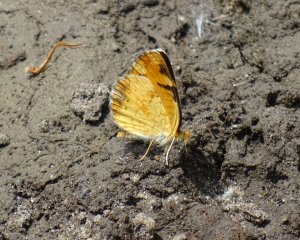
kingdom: Animalia
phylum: Arthropoda
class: Insecta
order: Lepidoptera
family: Nymphalidae
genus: Phyciodes
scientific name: Phyciodes tharos
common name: Northern Crescent
